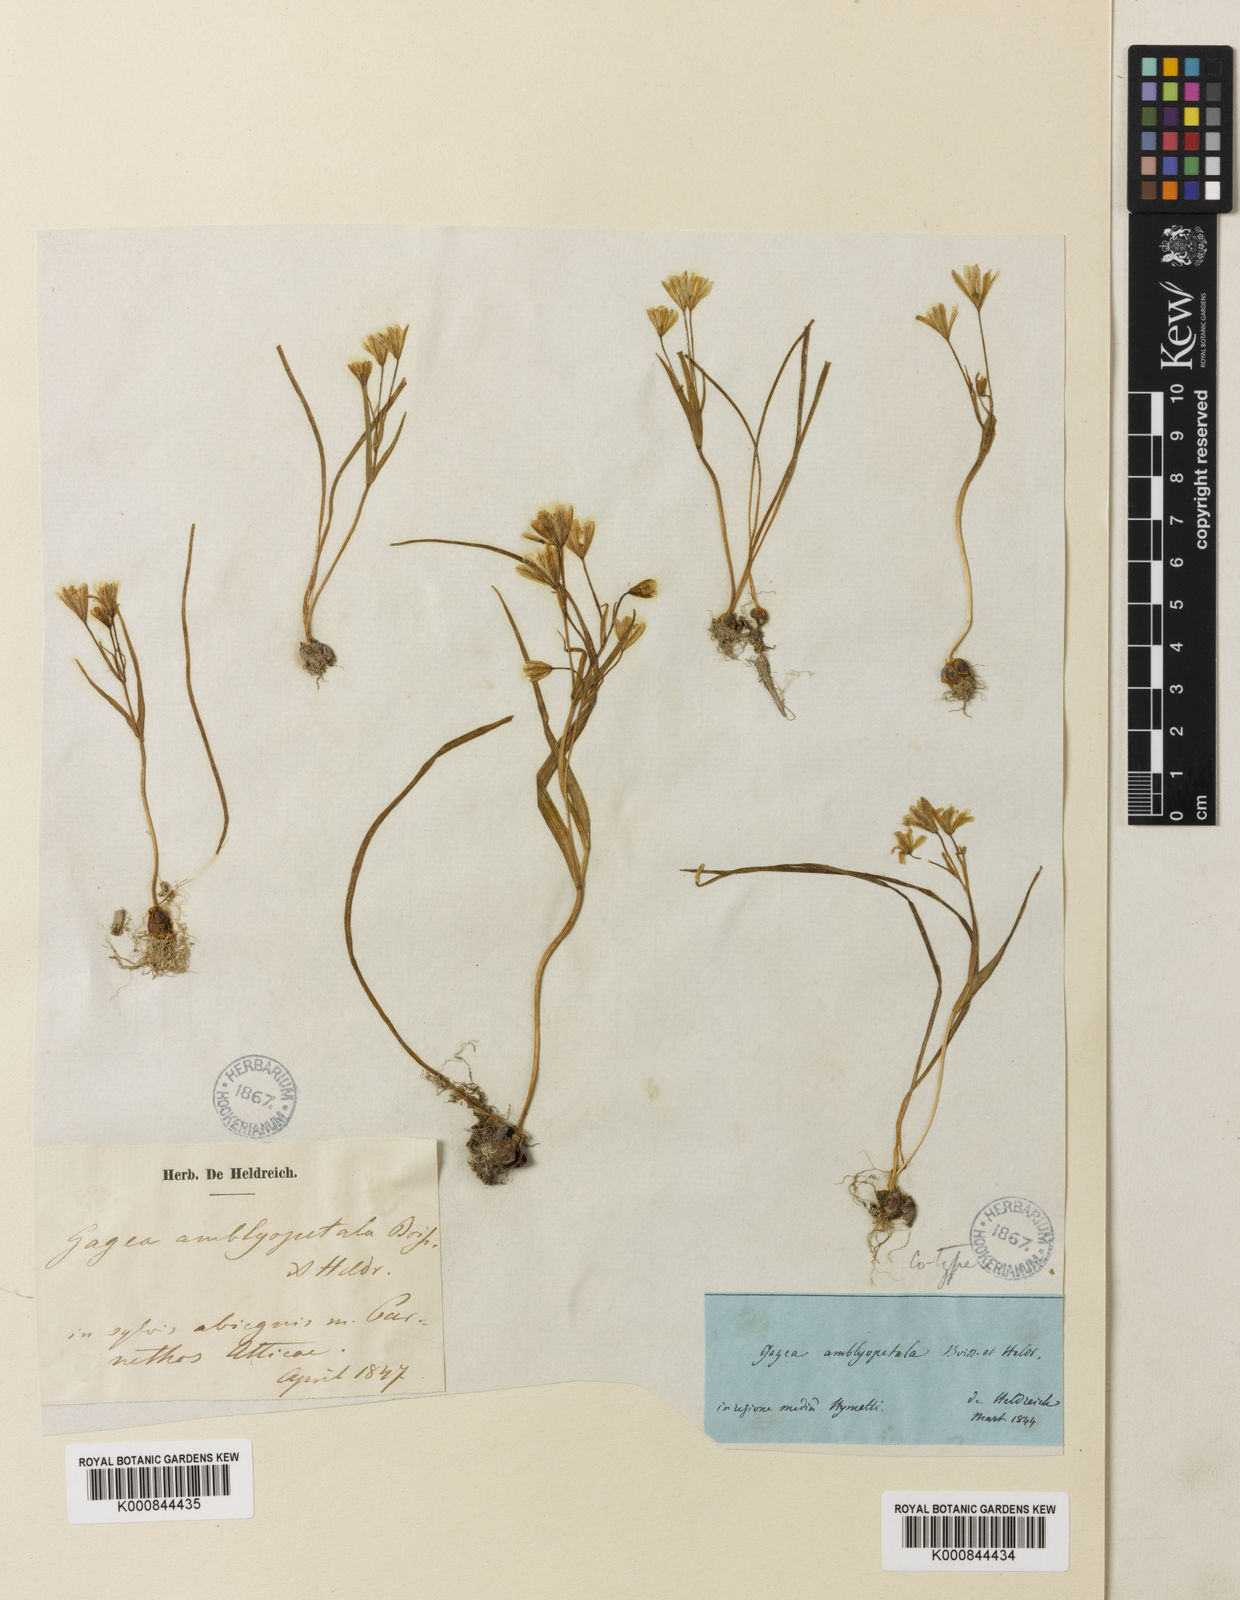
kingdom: Plantae
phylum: Tracheophyta
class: Liliopsida
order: Liliales
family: Liliaceae
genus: Gagea
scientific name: Gagea amblyopetala
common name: Blunt-flowered gagea
